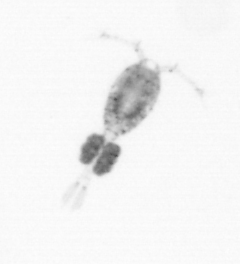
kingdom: Animalia
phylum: Arthropoda
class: Copepoda
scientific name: Copepoda
